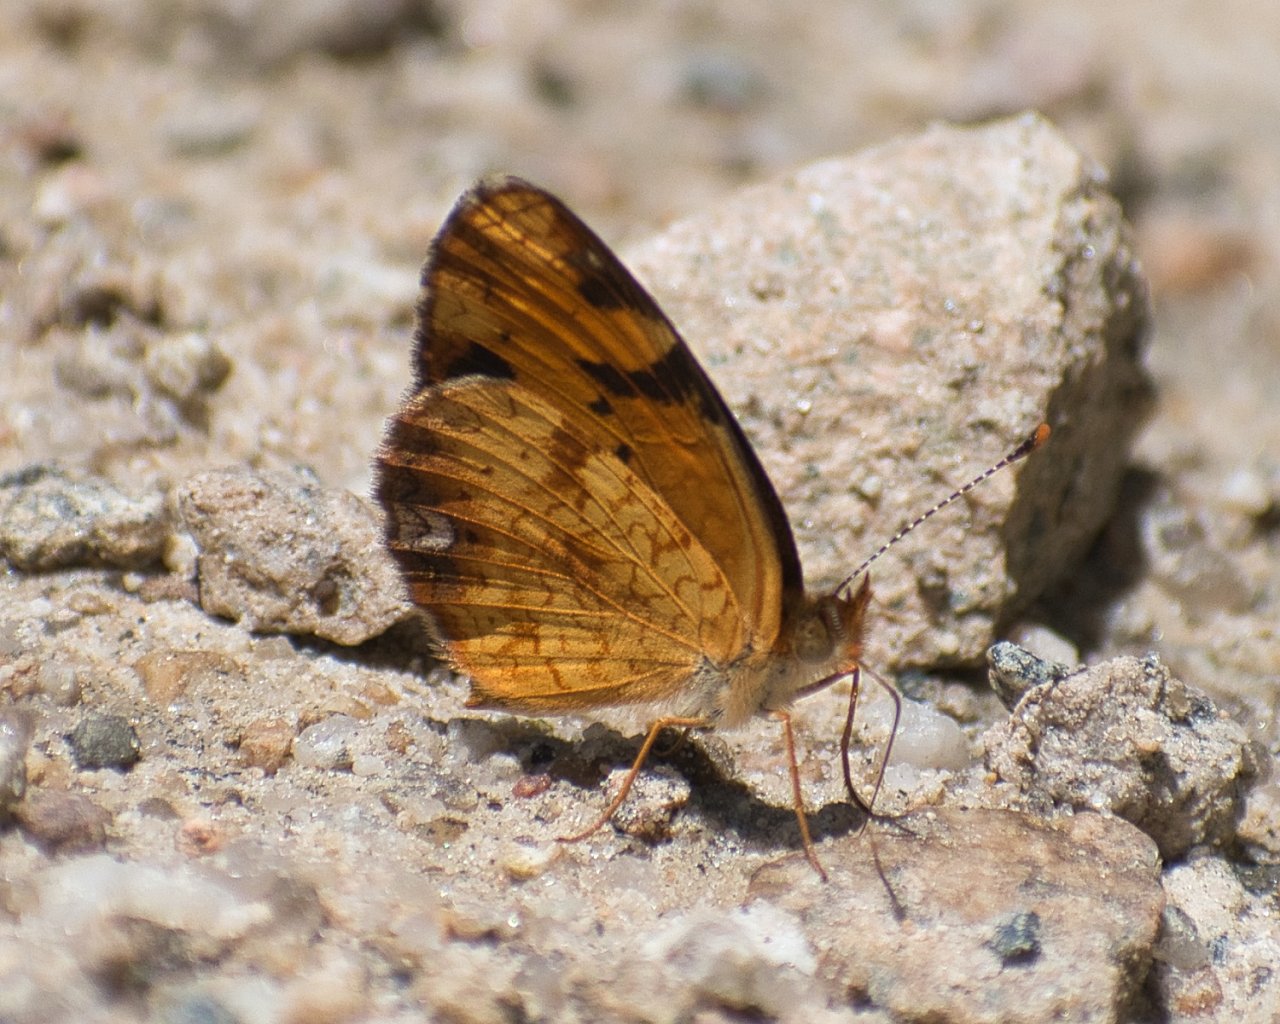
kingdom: Animalia
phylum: Arthropoda
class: Insecta
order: Lepidoptera
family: Nymphalidae
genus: Phyciodes
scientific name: Phyciodes tharos
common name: Northern Crescent
